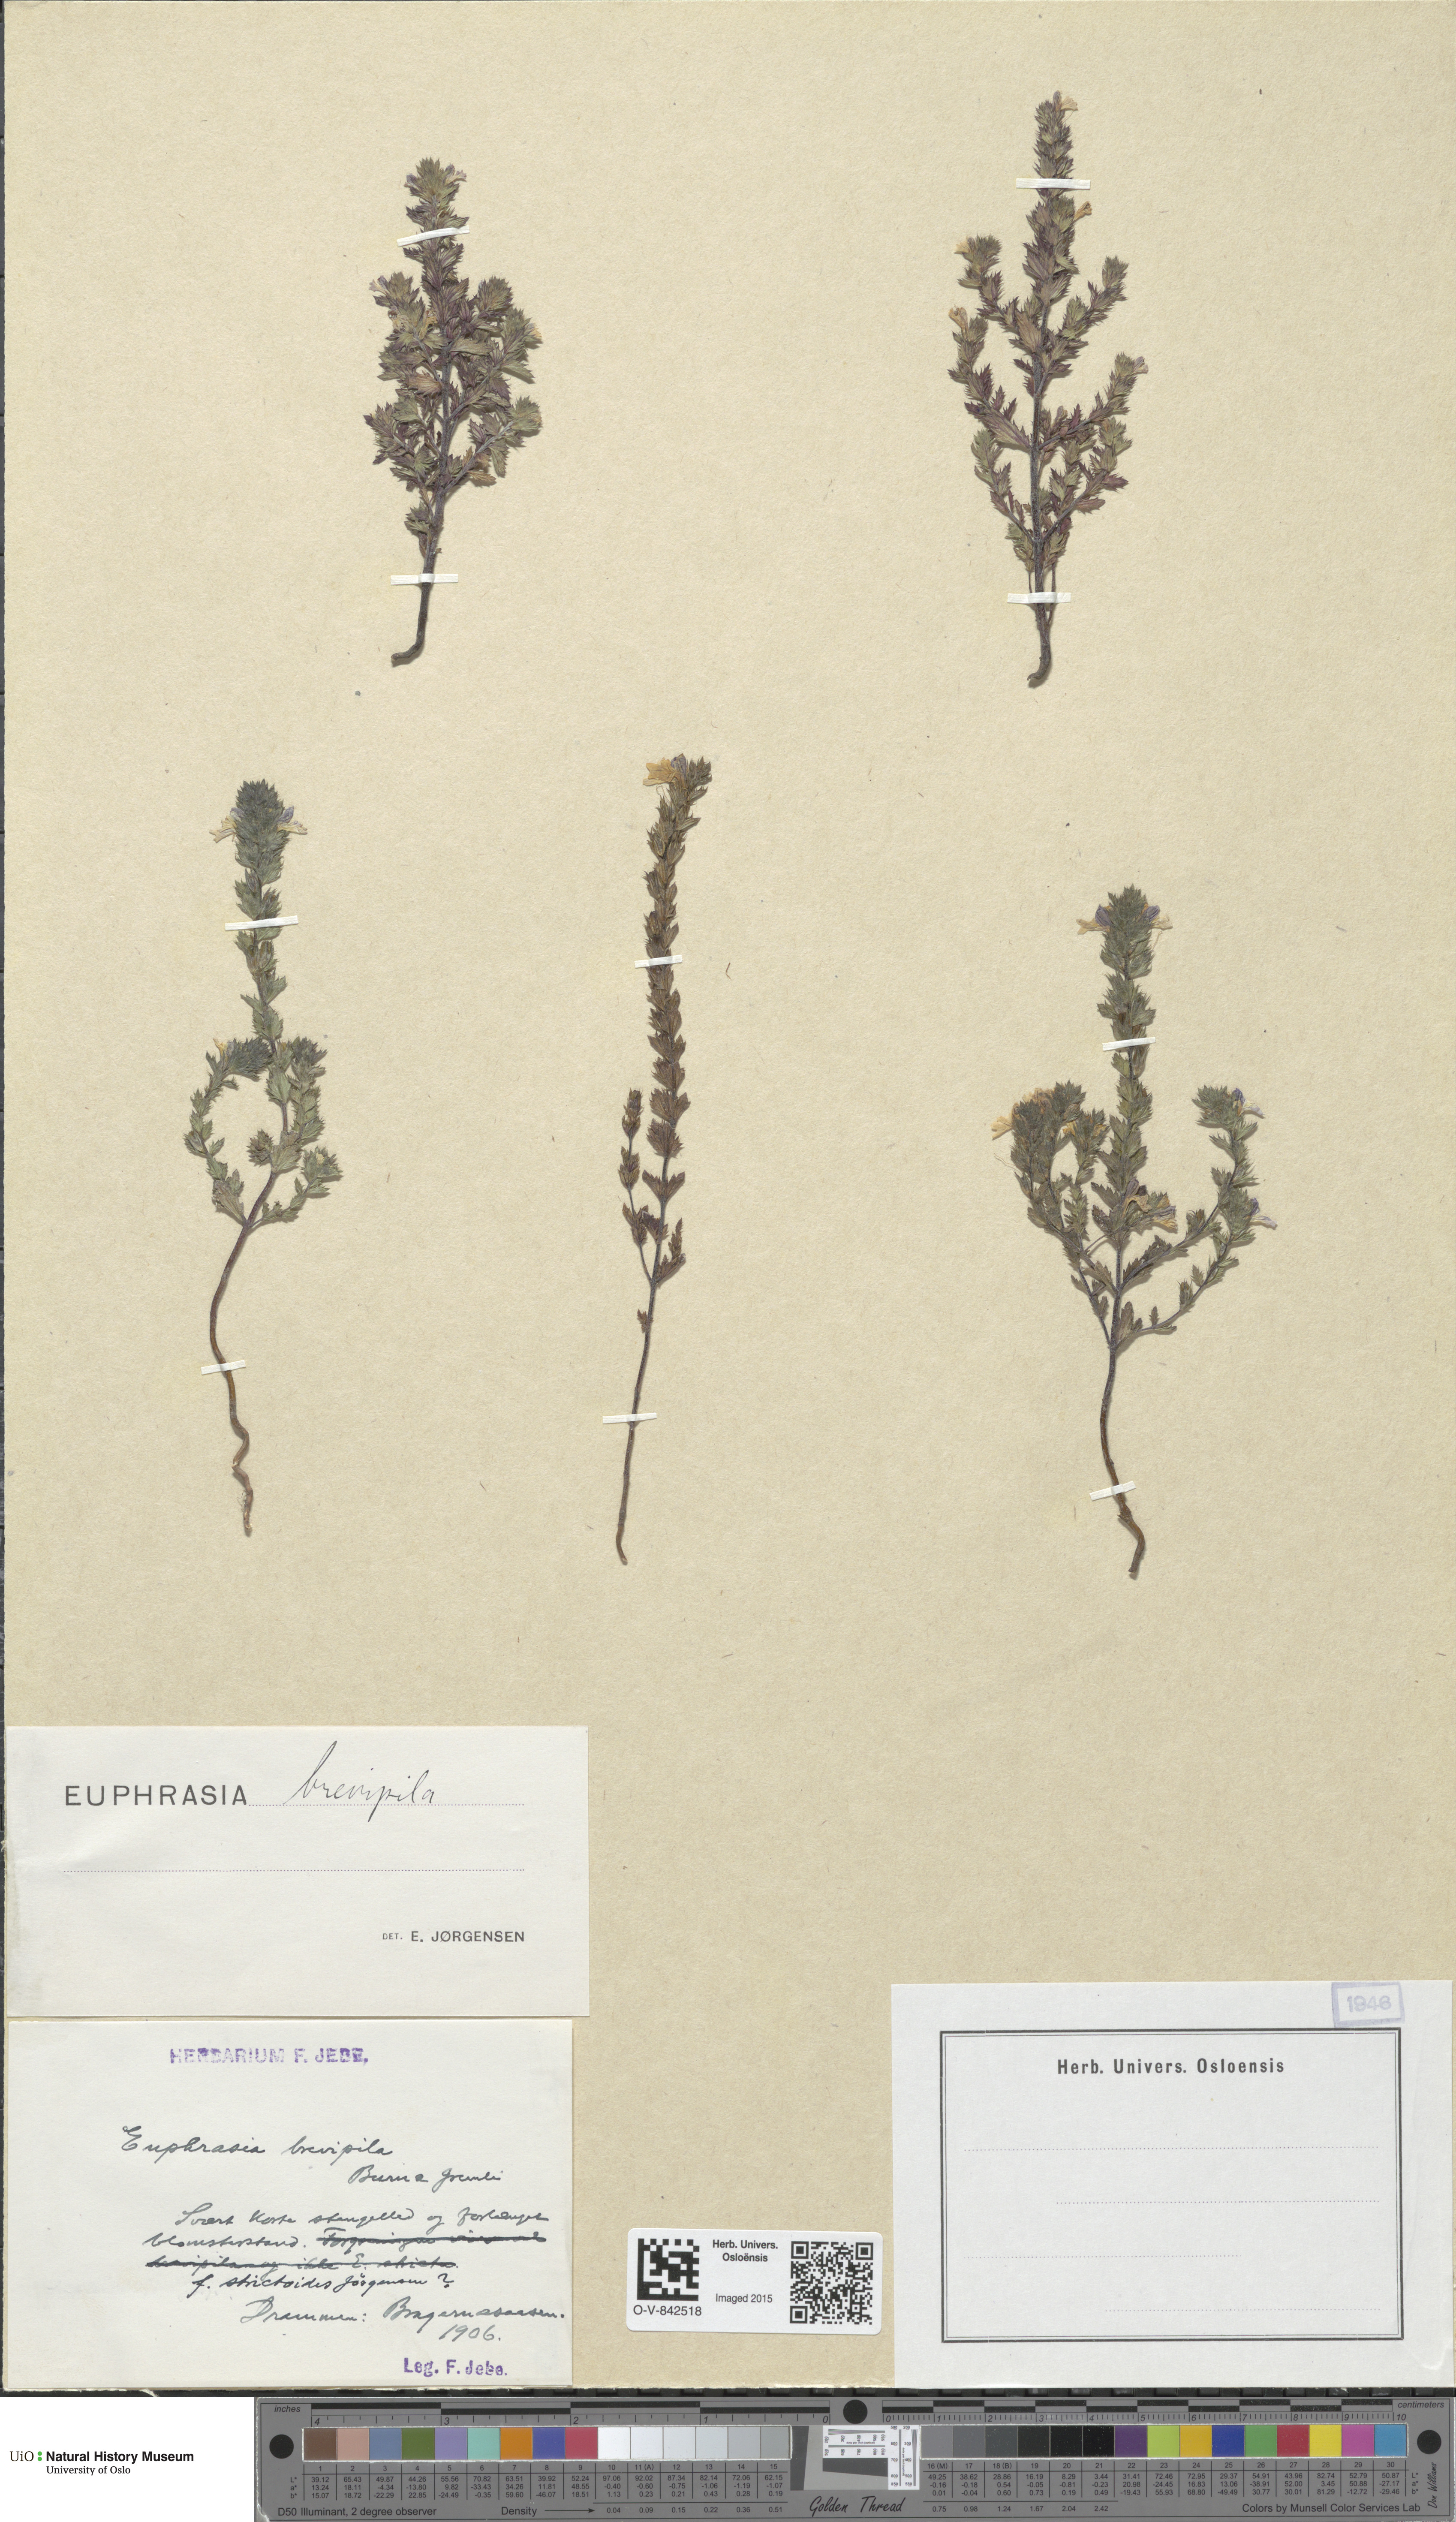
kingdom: Plantae
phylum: Tracheophyta
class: Magnoliopsida
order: Lamiales
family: Orobanchaceae
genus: Euphrasia
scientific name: Euphrasia vernalis
